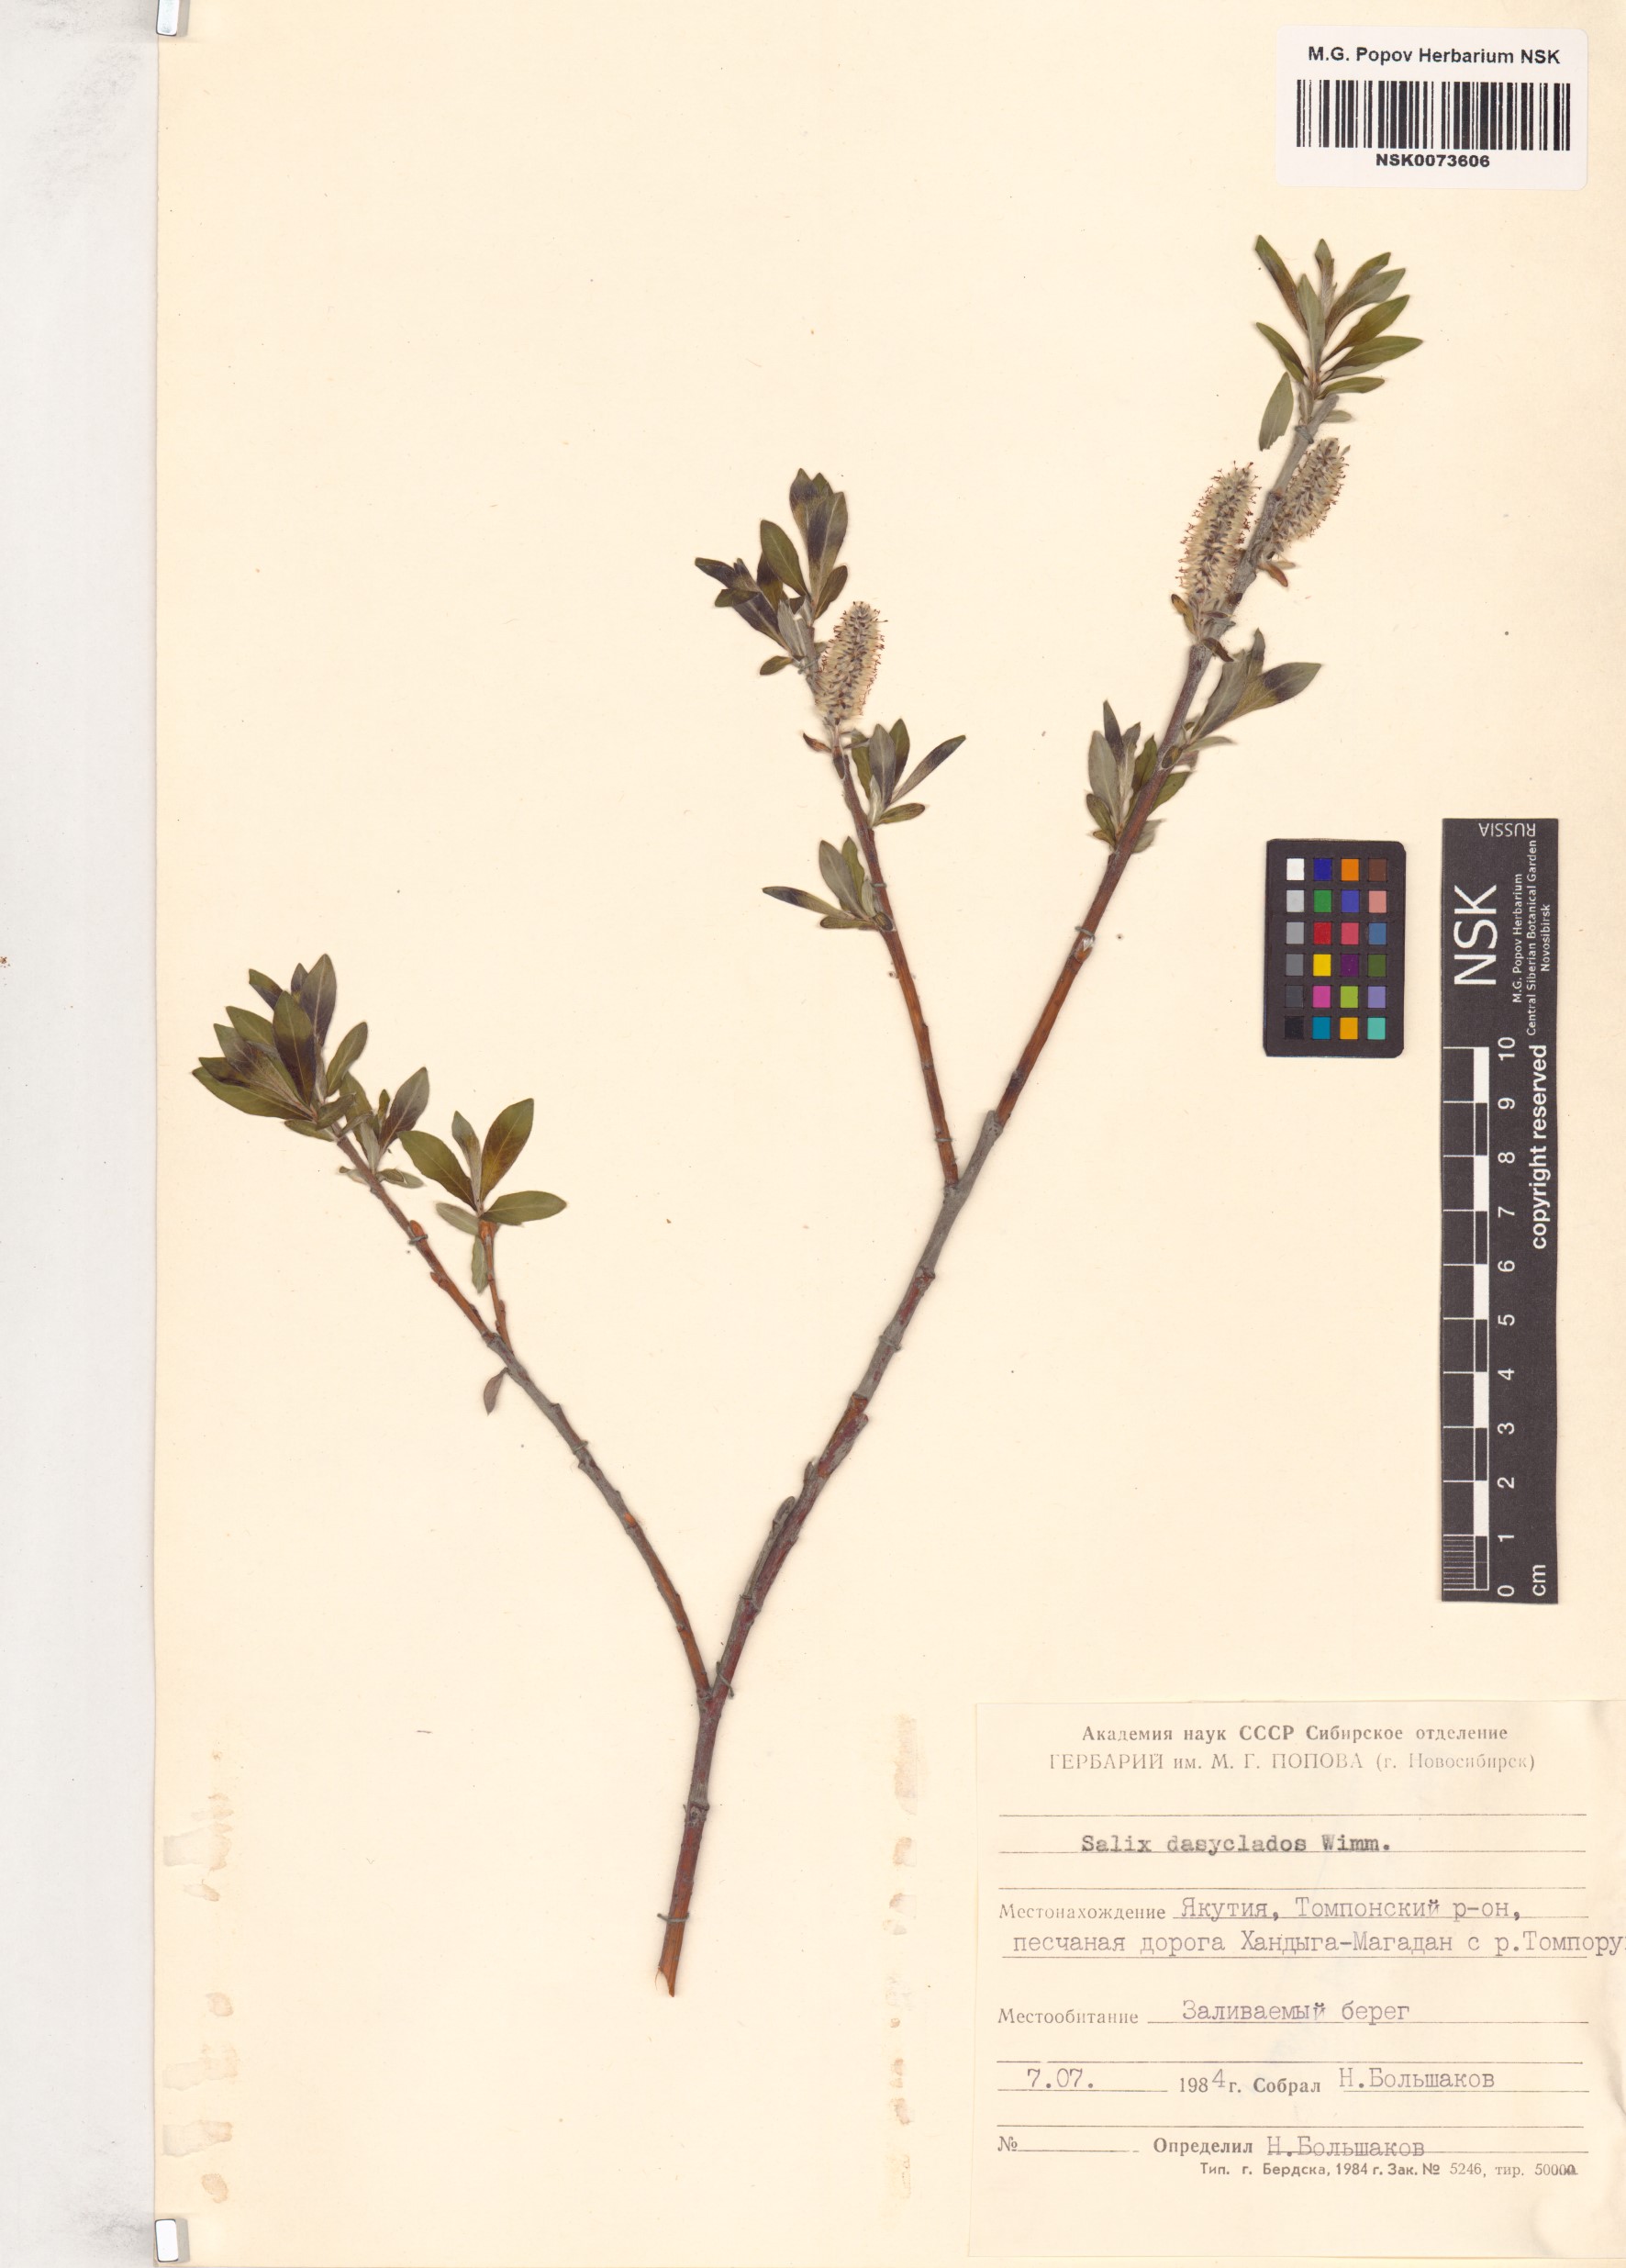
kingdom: Plantae
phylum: Tracheophyta
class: Magnoliopsida
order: Malpighiales
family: Salicaceae
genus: Salix
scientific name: Salix gmelinii
